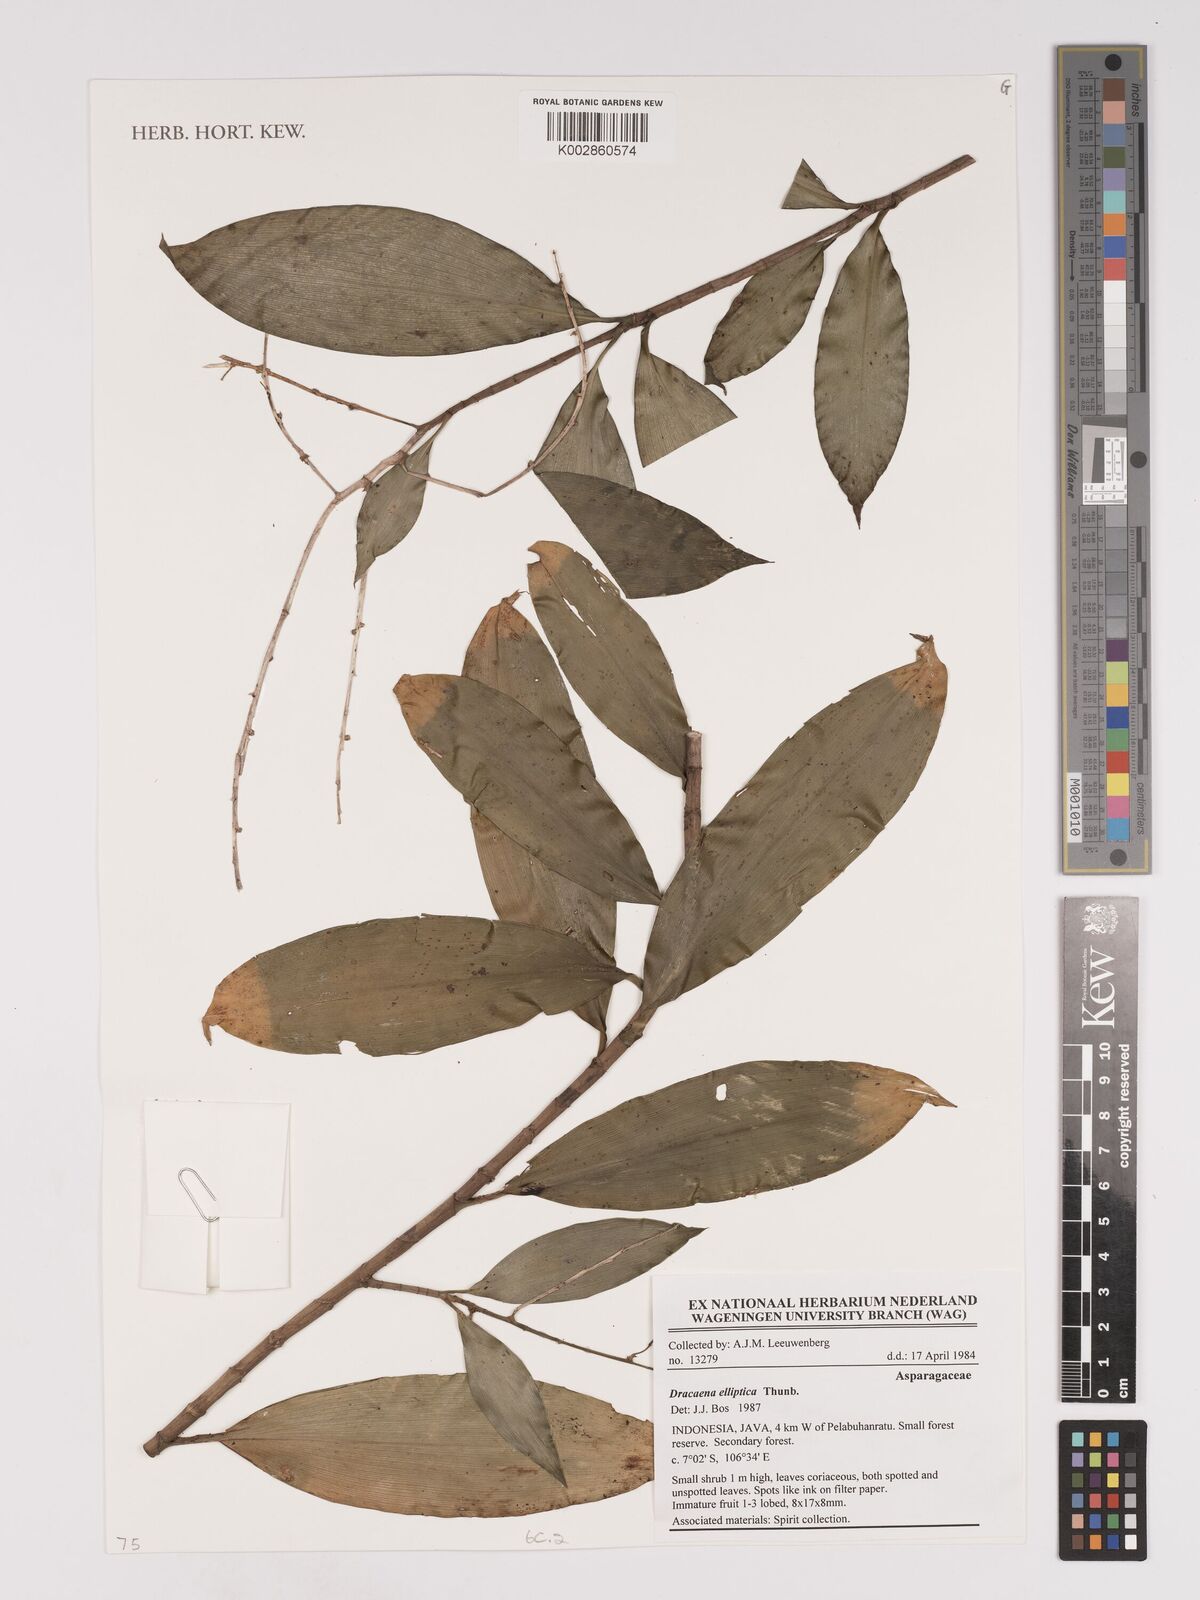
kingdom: Plantae
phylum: Tracheophyta
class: Liliopsida
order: Asparagales
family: Asparagaceae
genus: Dracaena
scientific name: Dracaena elliptica
